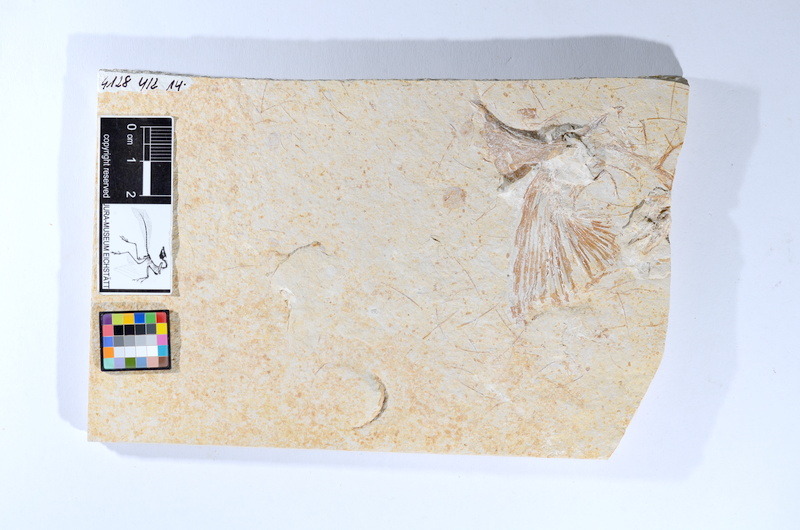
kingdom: Animalia
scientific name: Animalia
